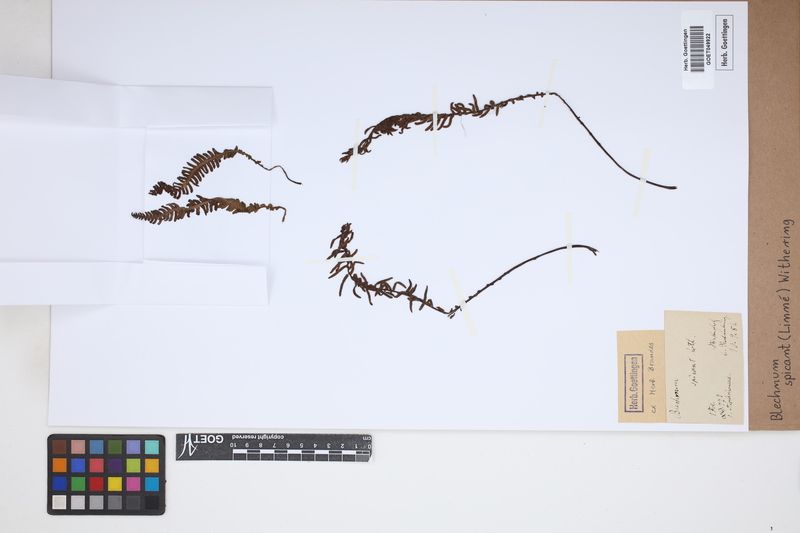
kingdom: Plantae
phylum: Tracheophyta
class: Polypodiopsida
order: Polypodiales
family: Blechnaceae
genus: Struthiopteris
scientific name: Struthiopteris spicant
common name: Deer fern
